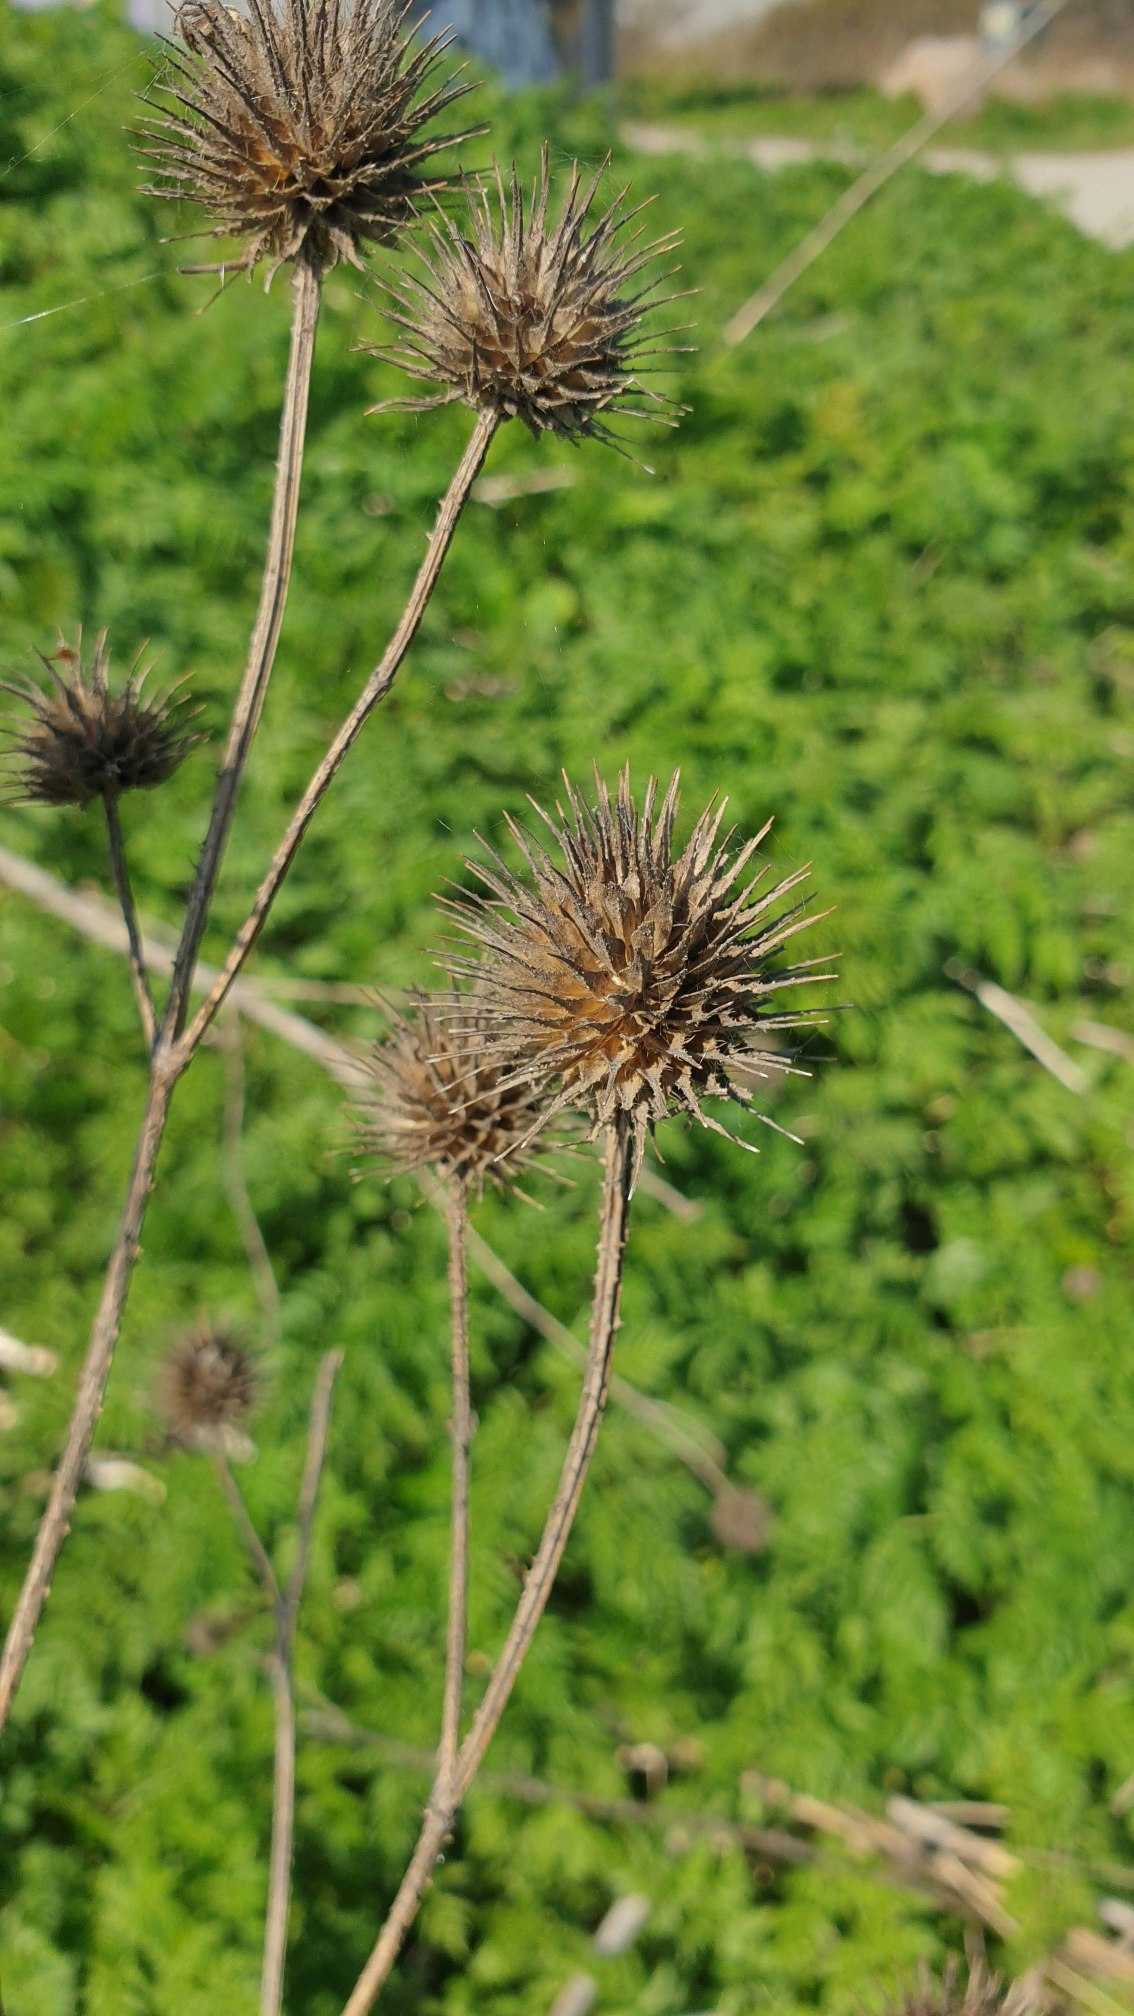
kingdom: Plantae
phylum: Tracheophyta
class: Magnoliopsida
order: Dipsacales
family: Caprifoliaceae
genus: Dipsacus
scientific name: Dipsacus strigosus
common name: Pindsvin-kartebolle
